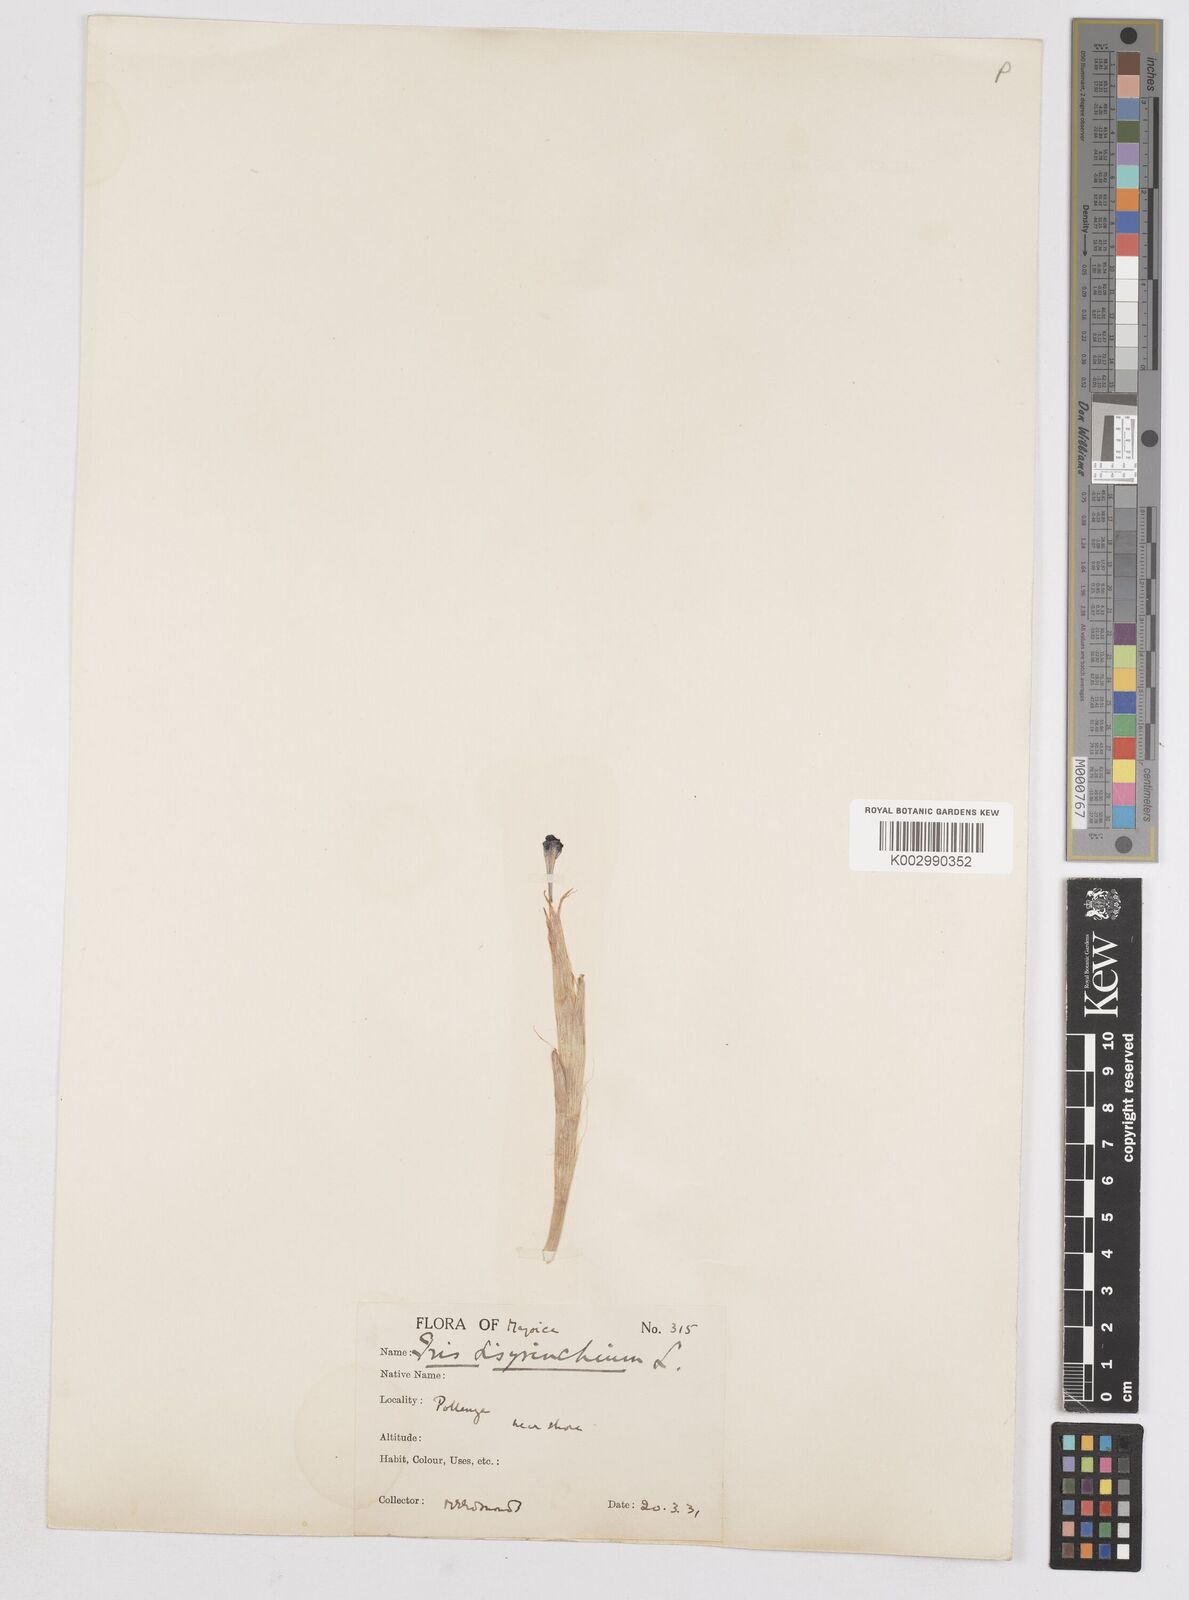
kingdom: Plantae
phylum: Tracheophyta
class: Liliopsida
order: Asparagales
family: Iridaceae
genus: Moraea
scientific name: Moraea sisyrinchium
